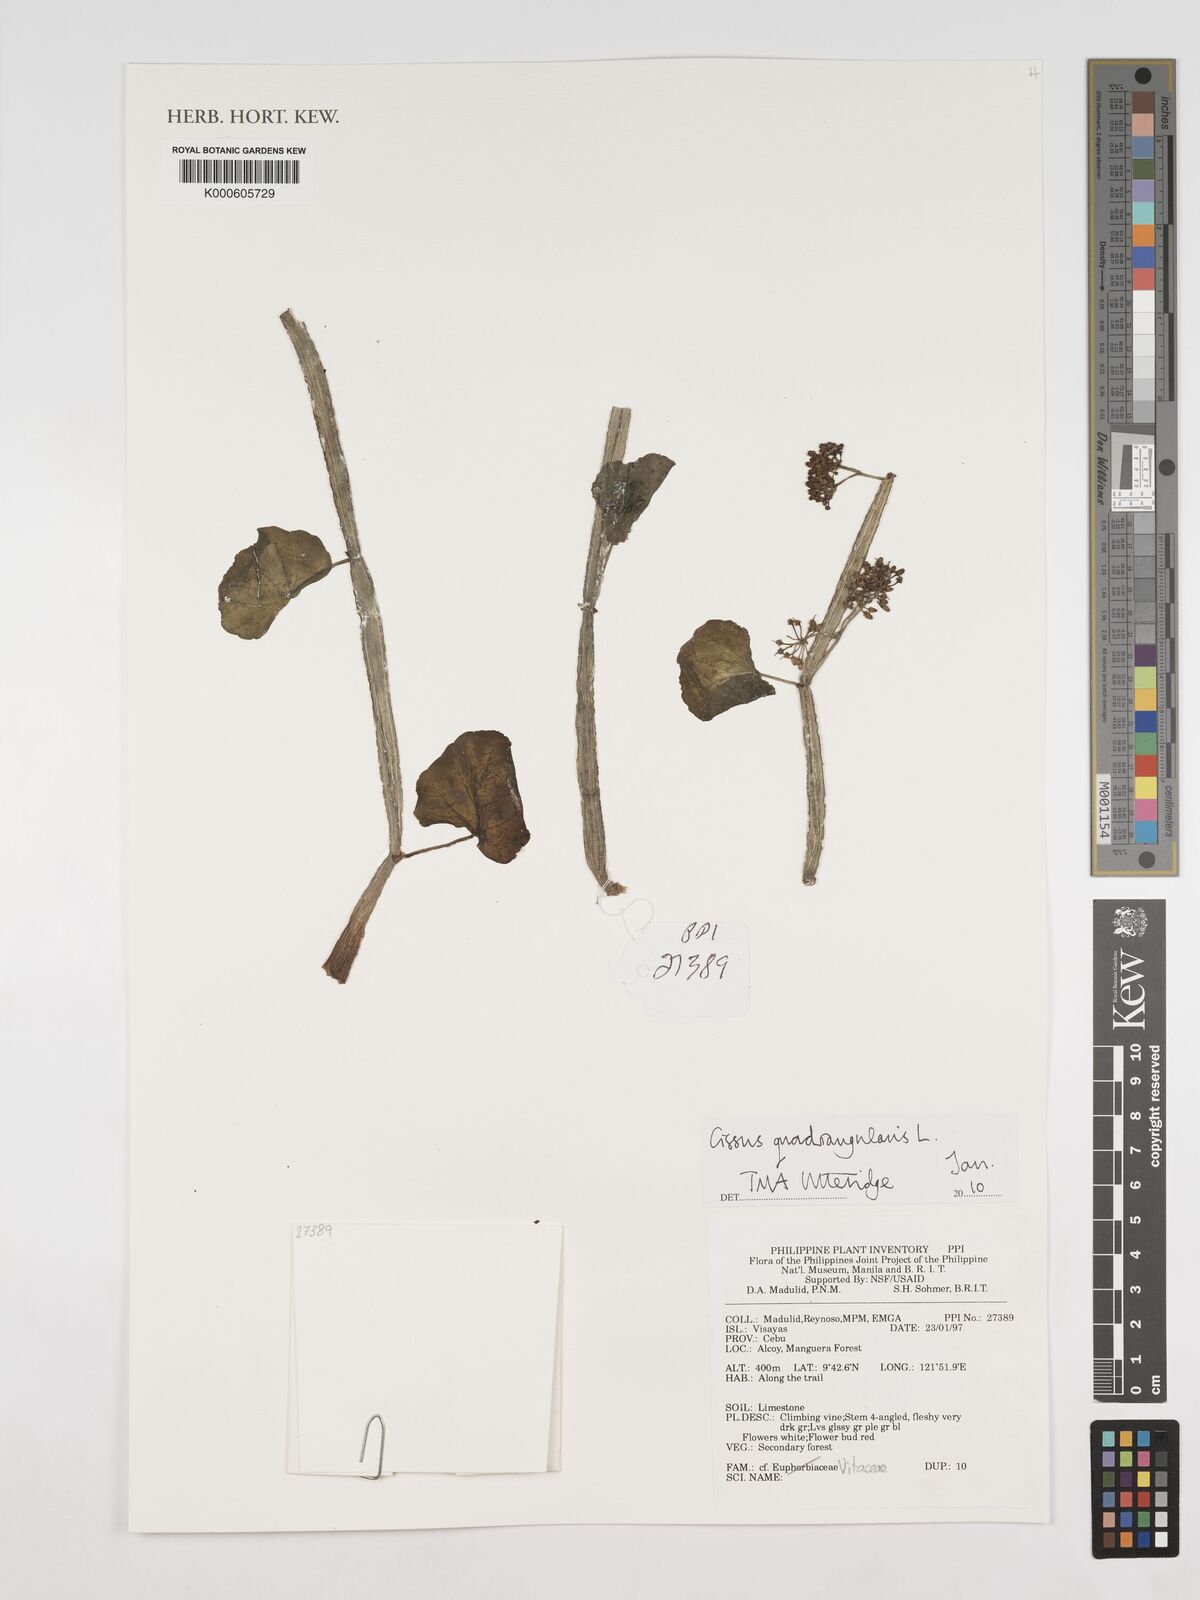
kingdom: Plantae
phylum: Tracheophyta
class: Magnoliopsida
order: Vitales
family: Vitaceae
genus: Cissus
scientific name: Cissus quadrangularis
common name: Veldt-grape
